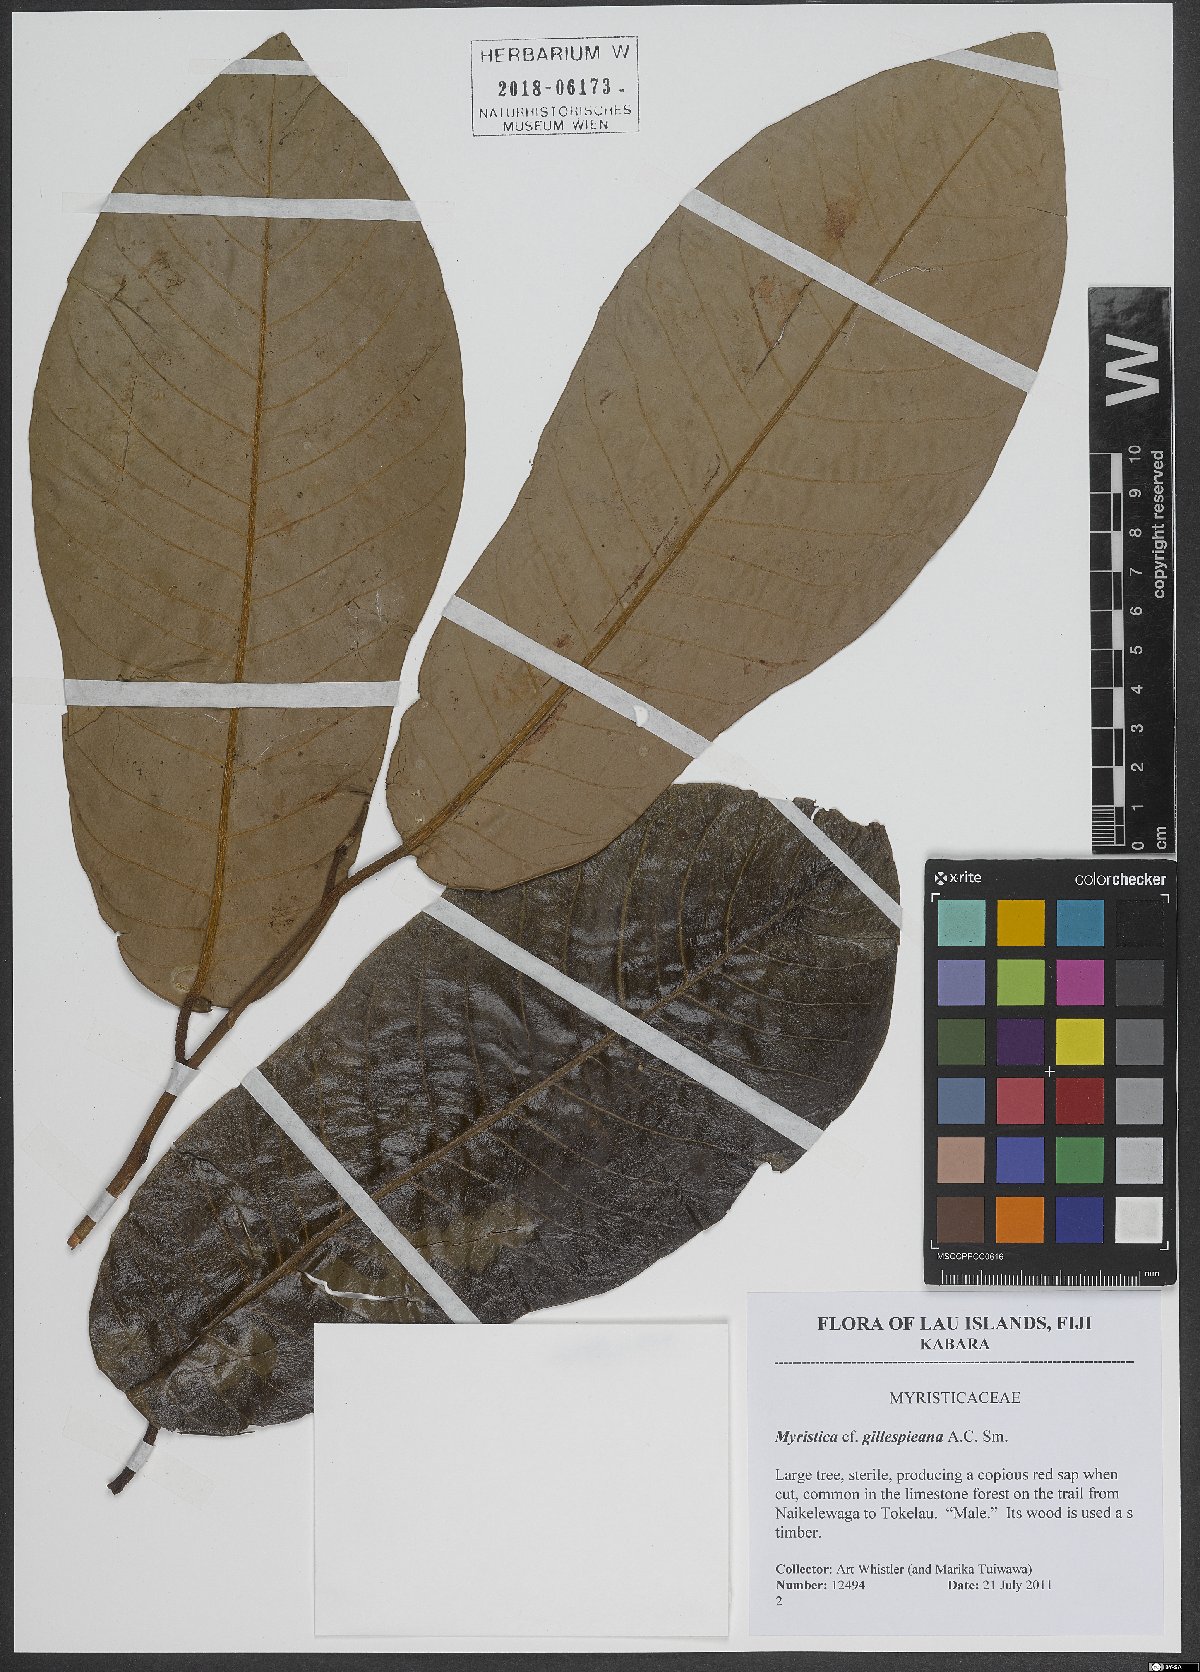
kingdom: Plantae
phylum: Tracheophyta
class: Magnoliopsida
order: Magnoliales
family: Myristicaceae
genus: Myristica
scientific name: Myristica gillespieana
